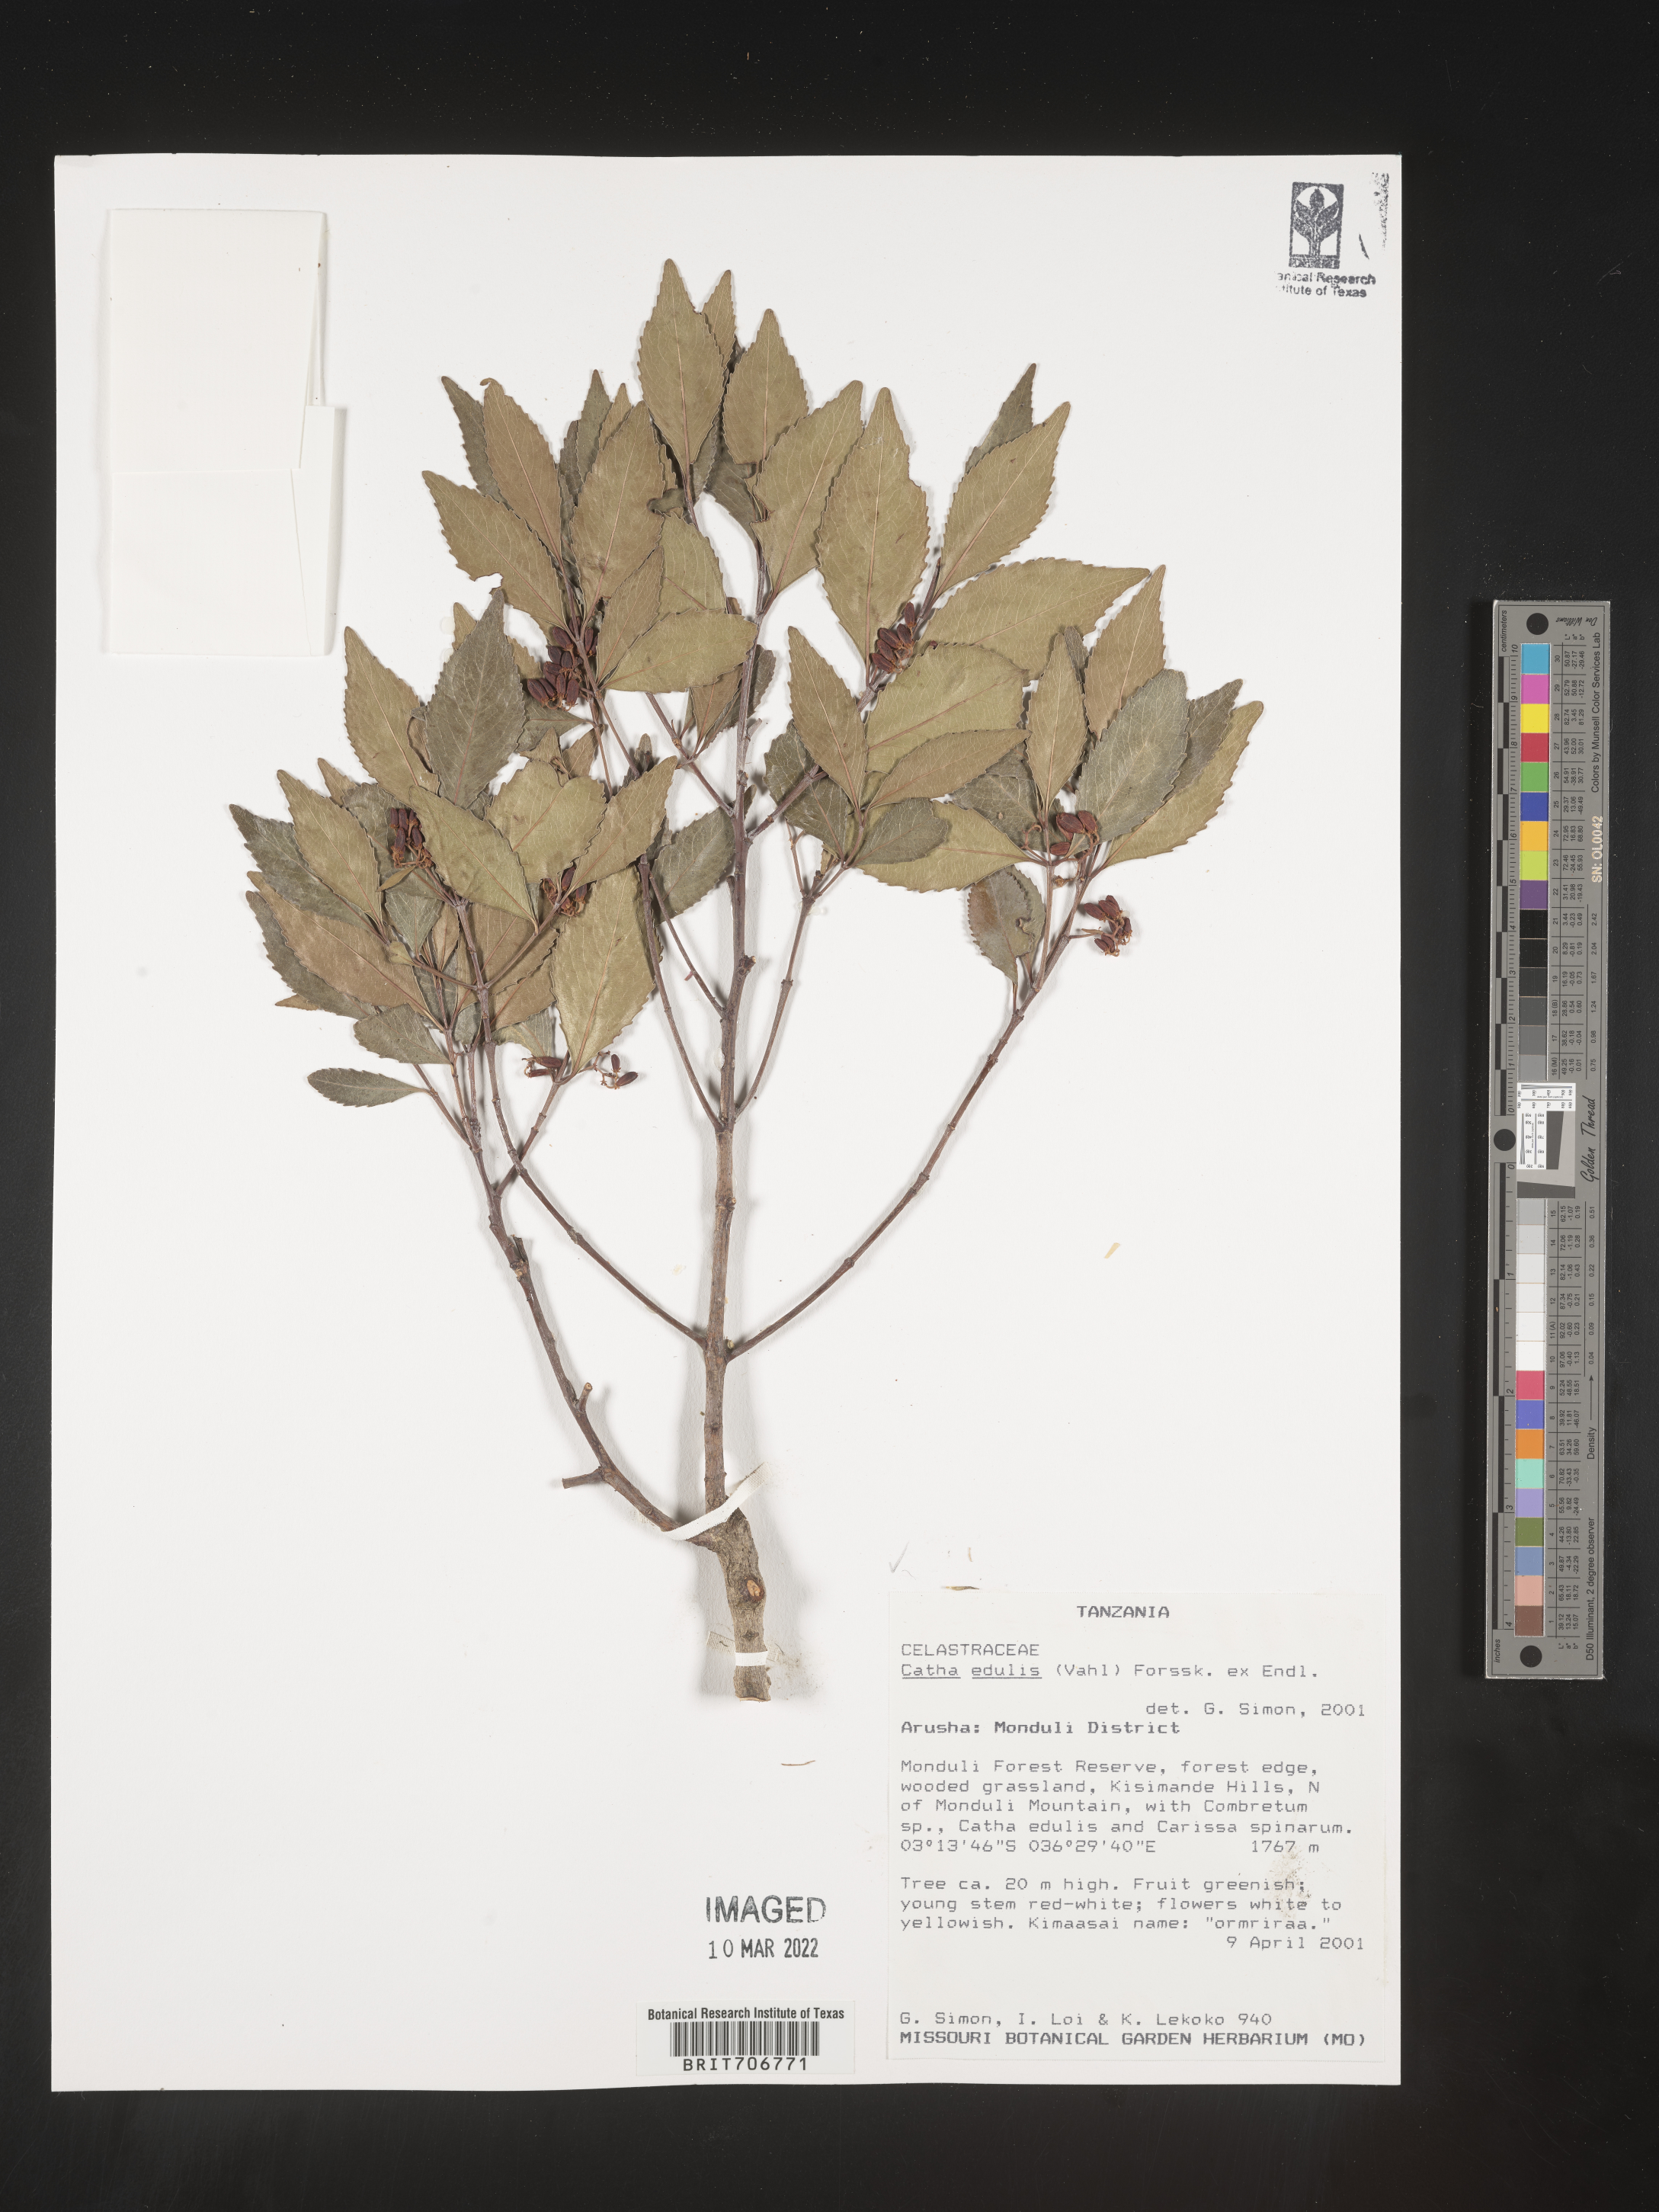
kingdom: Plantae
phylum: Tracheophyta
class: Magnoliopsida
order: Celastrales
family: Celastraceae
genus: Catha
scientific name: Catha
